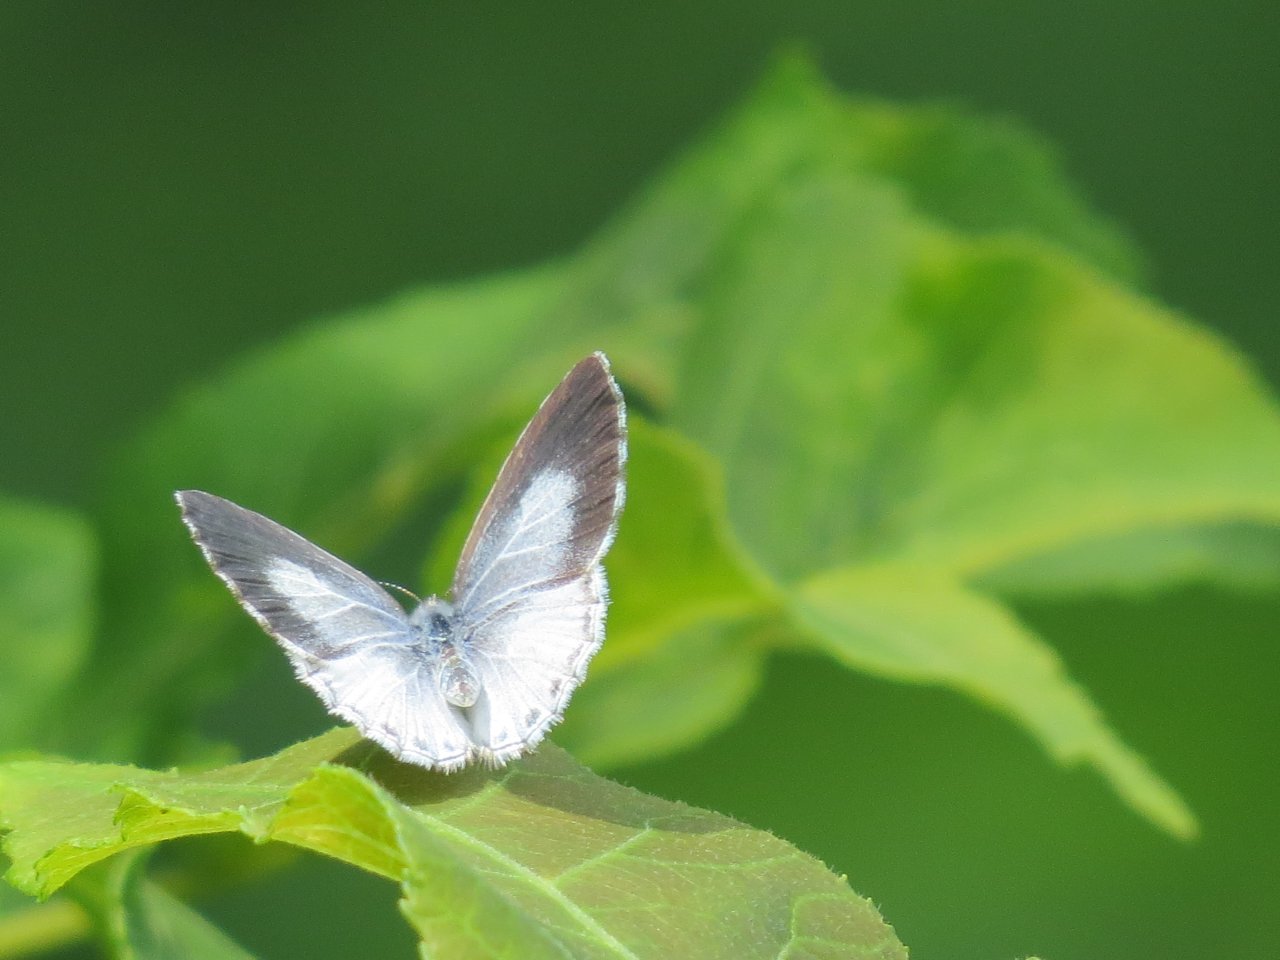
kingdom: Animalia
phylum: Arthropoda
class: Insecta
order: Lepidoptera
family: Lycaenidae
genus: Celastrina
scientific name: Celastrina lucia
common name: Northern Spring Azure
